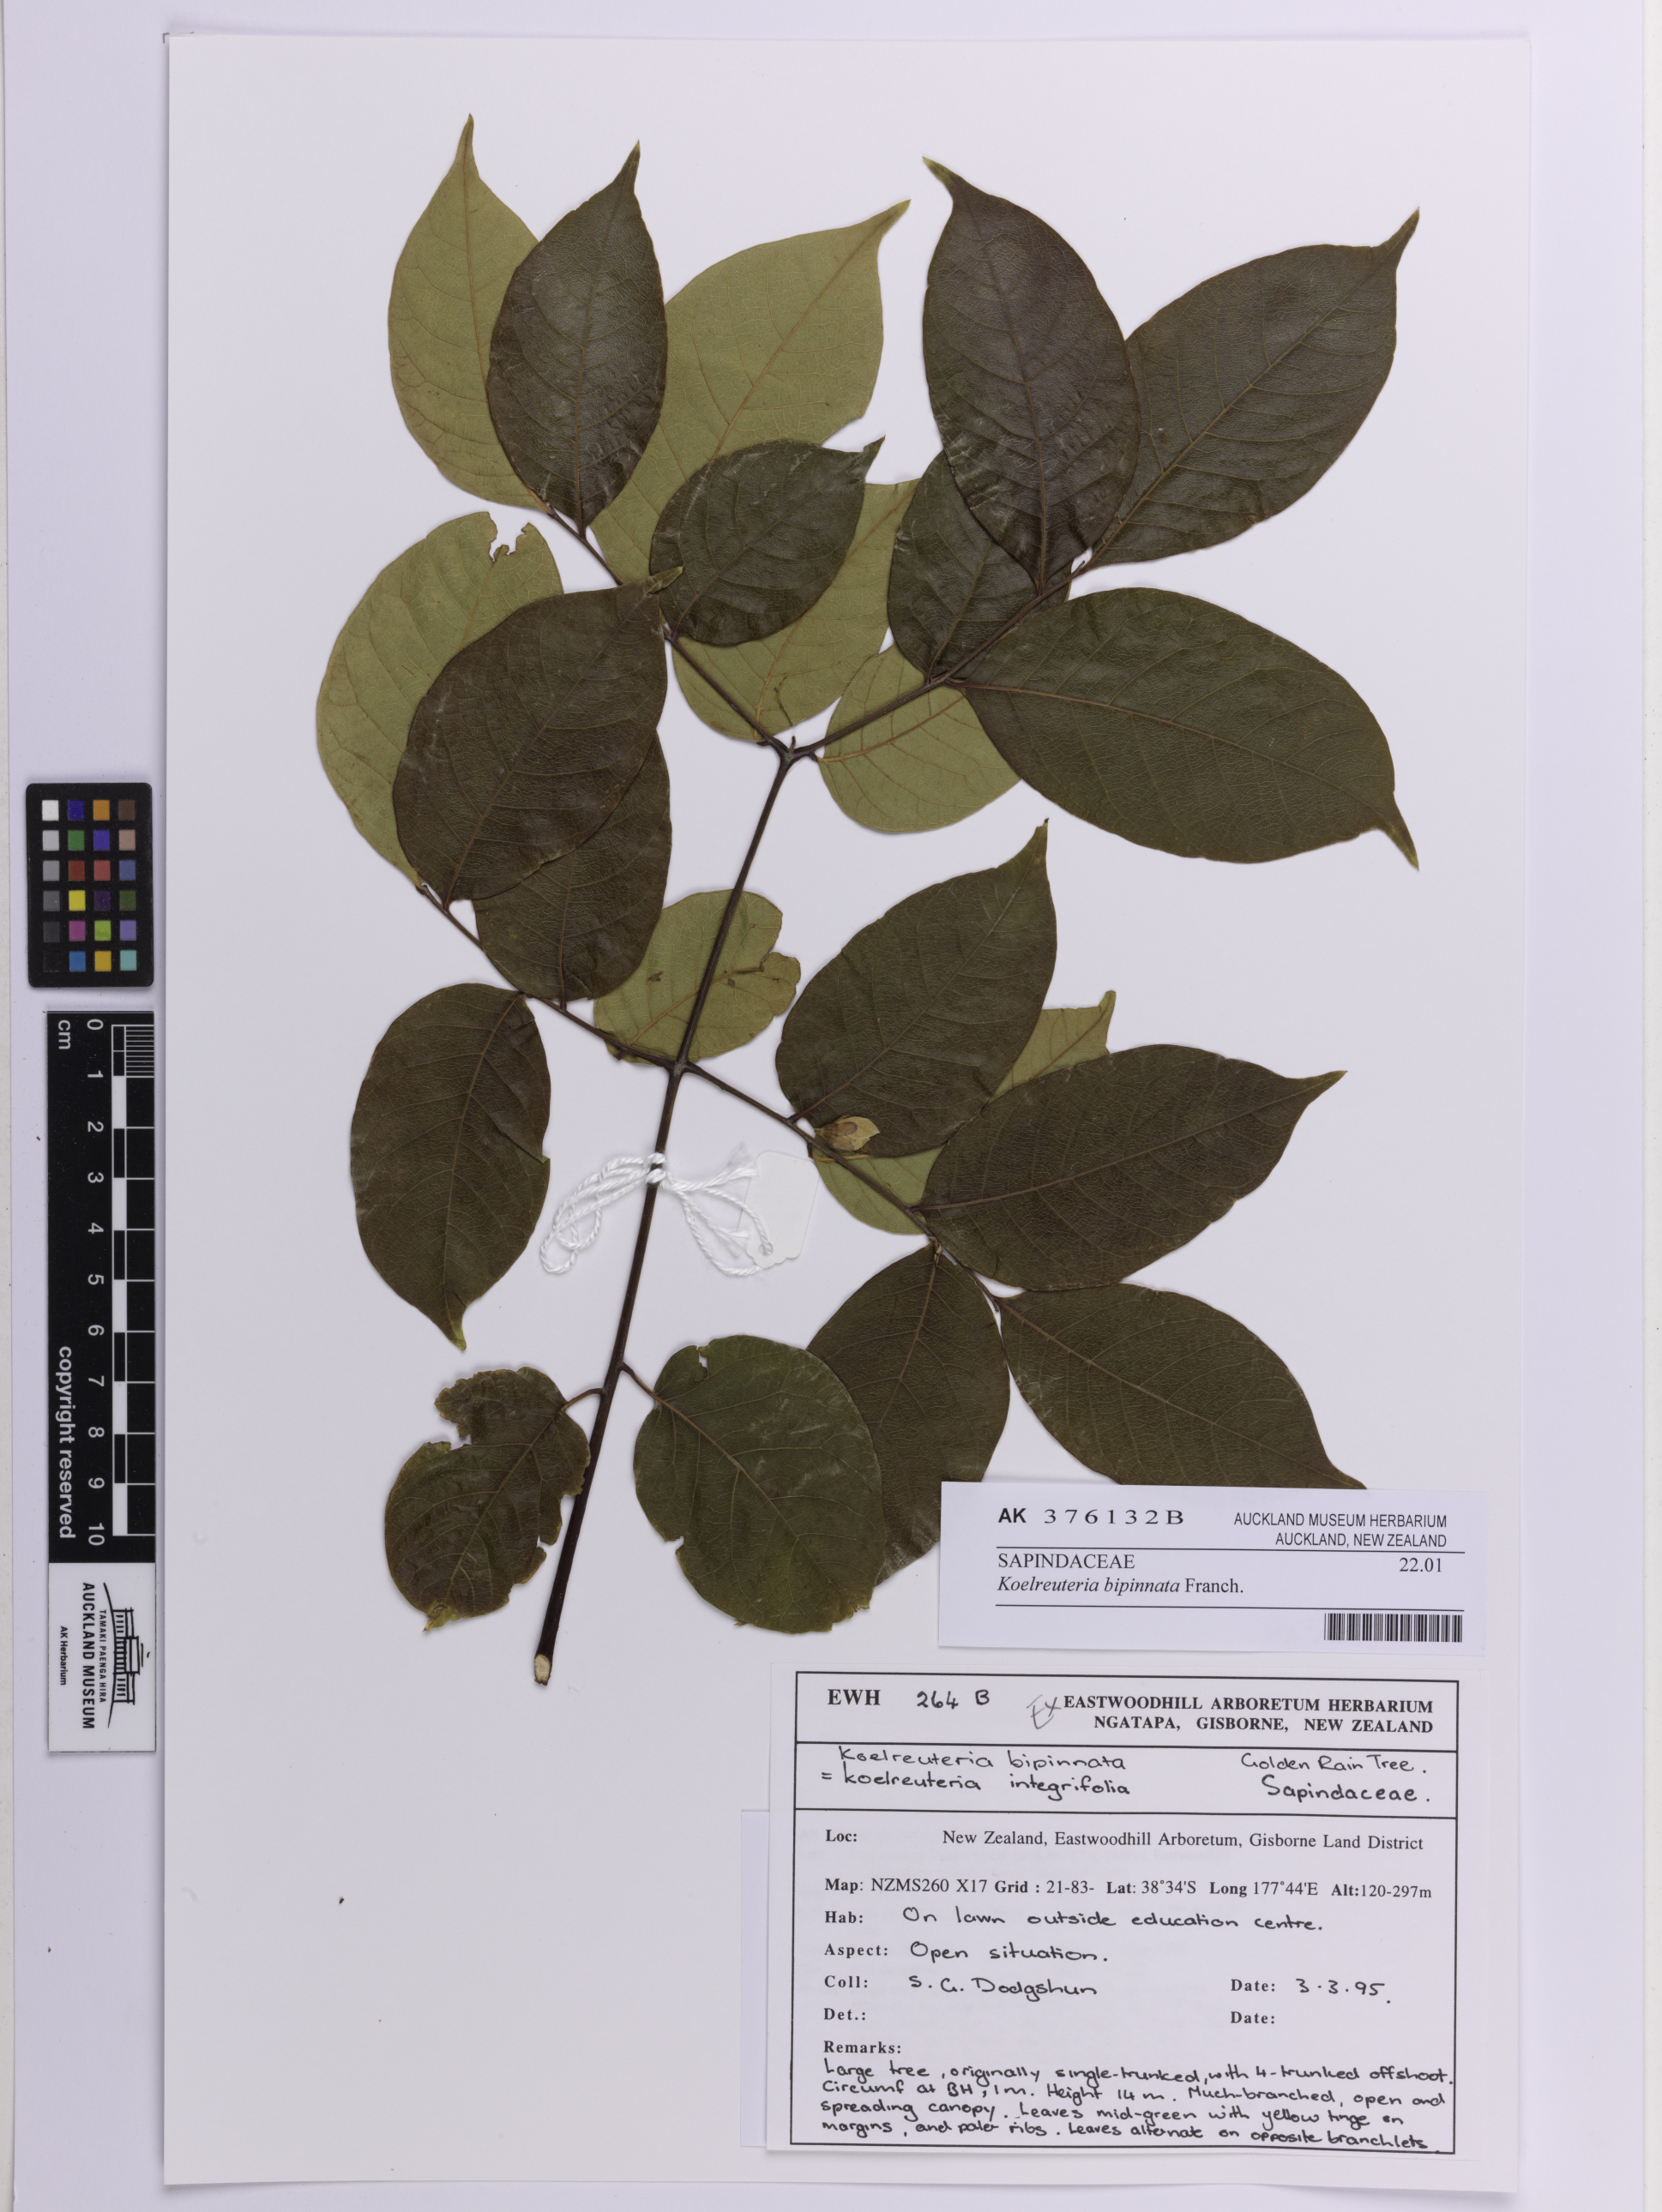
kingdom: Plantae
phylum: Tracheophyta
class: Magnoliopsida
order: Sapindales
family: Sapindaceae
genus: Koelreuteria
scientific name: Koelreuteria bipinnata
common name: Goldenrain tree
